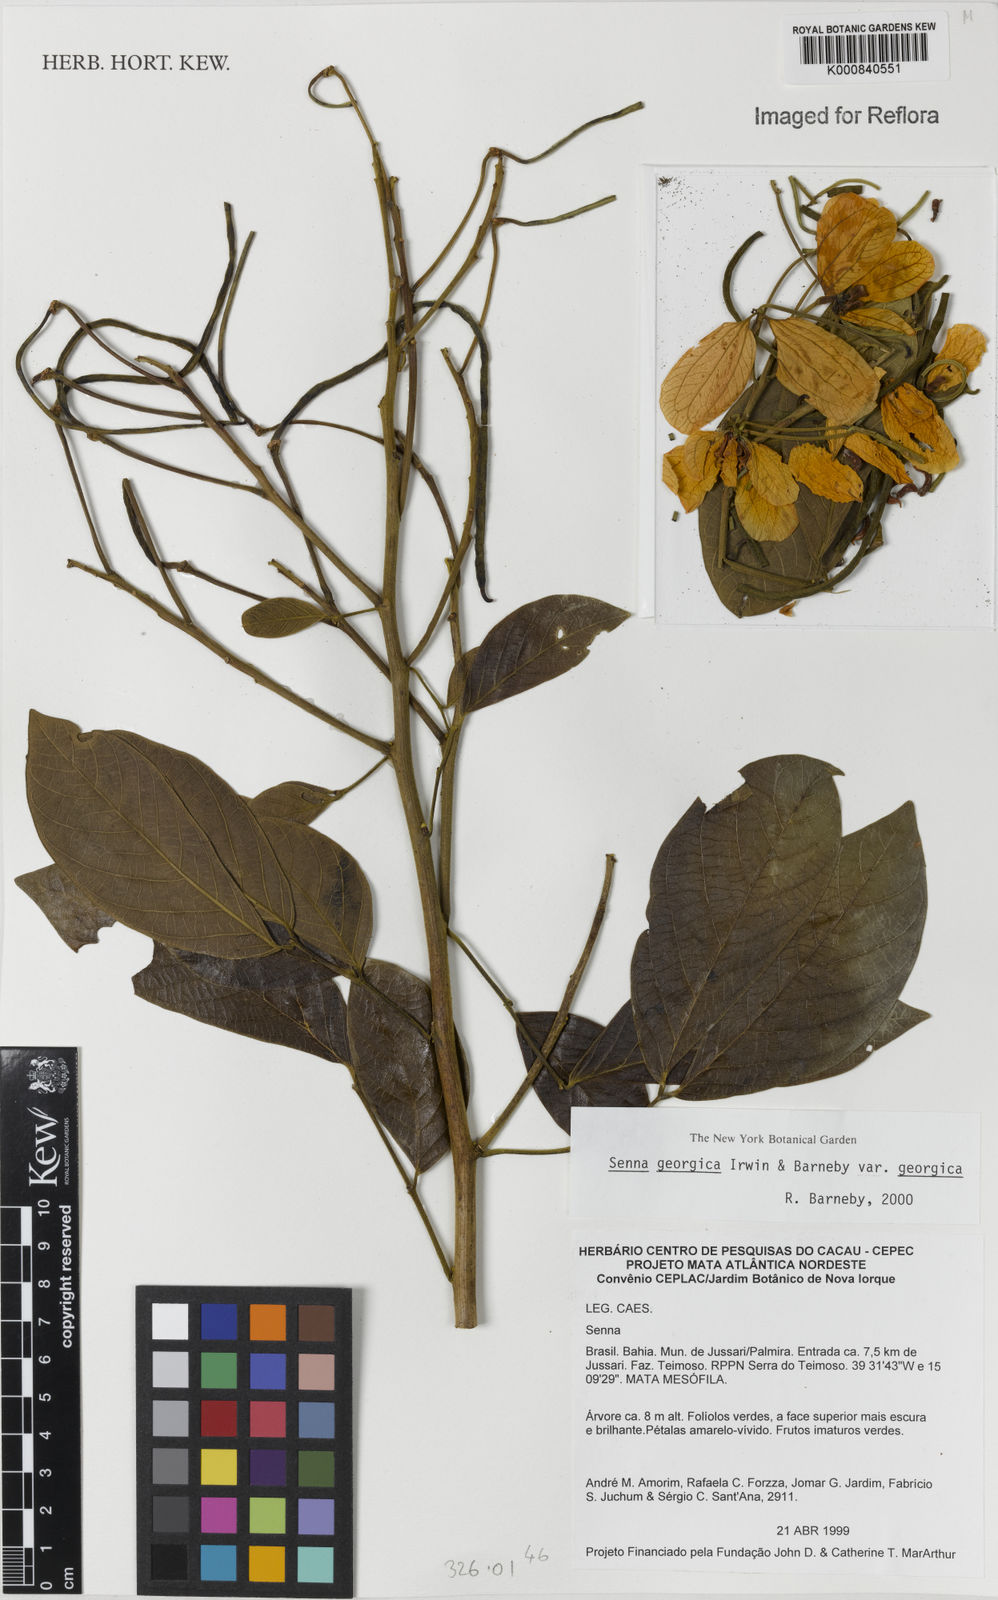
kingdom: Plantae
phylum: Tracheophyta
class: Magnoliopsida
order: Fabales
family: Fabaceae
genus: Senna
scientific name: Senna macranthera
